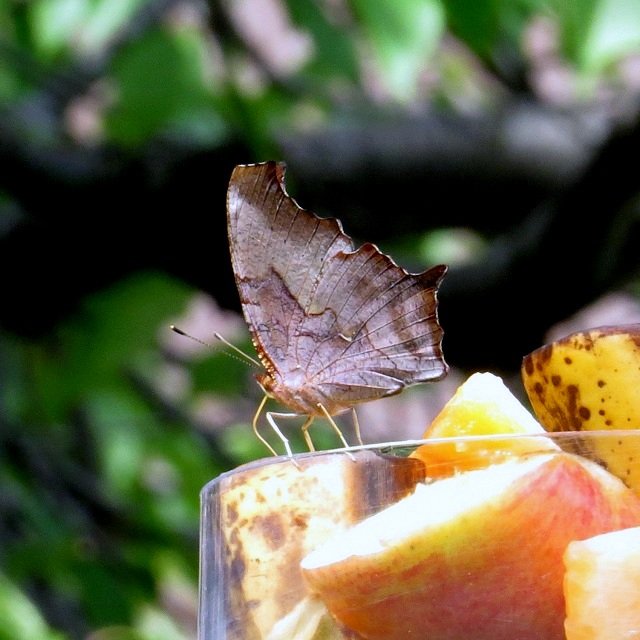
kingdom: Animalia
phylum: Arthropoda
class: Insecta
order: Lepidoptera
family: Nymphalidae
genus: Polygonia
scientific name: Polygonia interrogationis
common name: Question Mark
